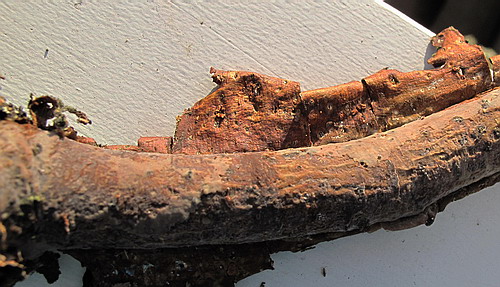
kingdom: Fungi
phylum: Basidiomycota
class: Agaricomycetes
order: Corticiales
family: Vuilleminiaceae
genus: Vuilleminia
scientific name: Vuilleminia comedens
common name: almindelig barksprænger
